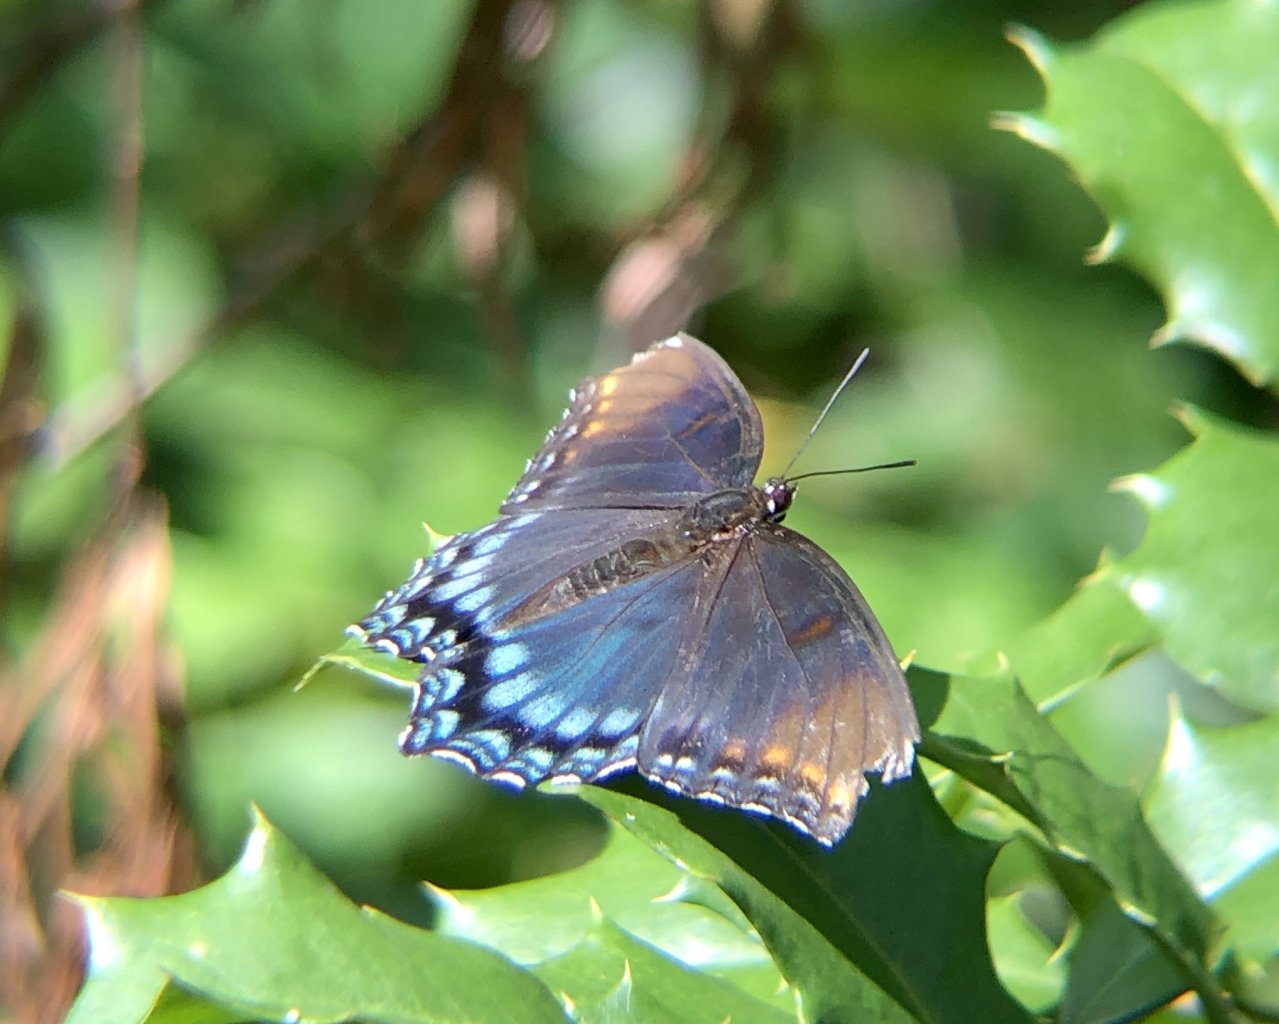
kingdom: Animalia
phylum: Arthropoda
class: Insecta
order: Lepidoptera
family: Nymphalidae
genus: Limenitis
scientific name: Limenitis astyanax
